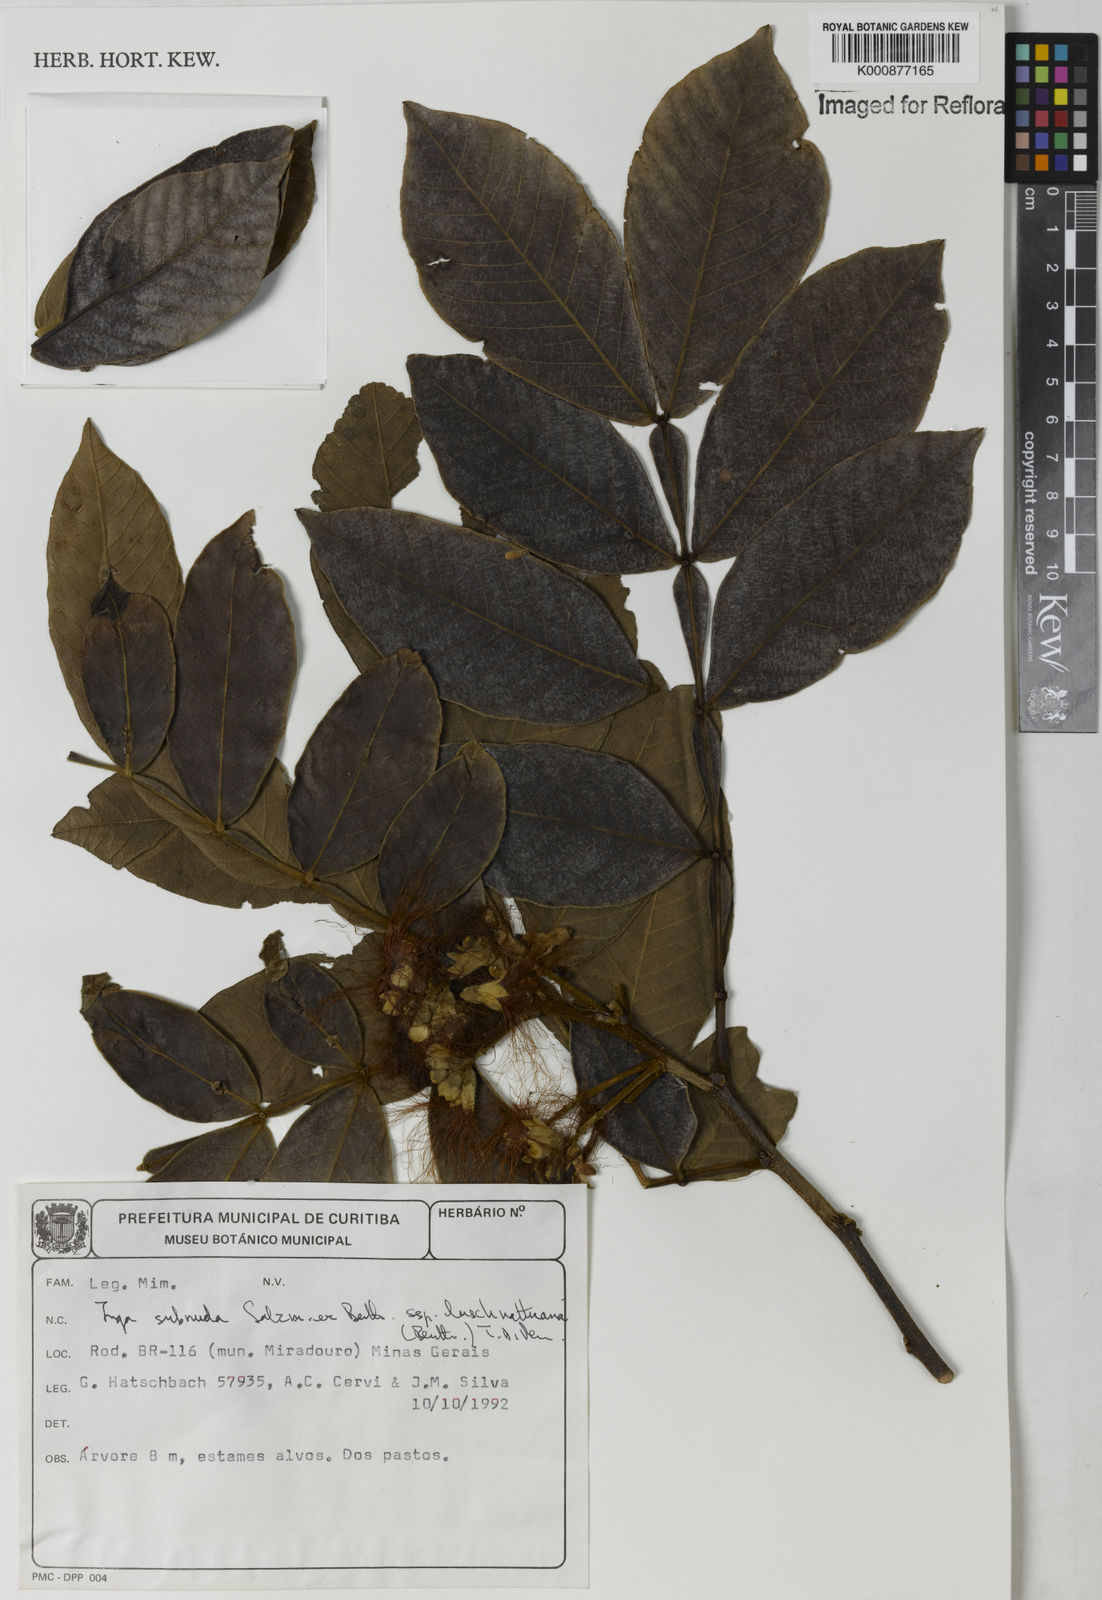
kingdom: Plantae
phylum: Tracheophyta
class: Magnoliopsida
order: Fabales
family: Fabaceae
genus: Inga
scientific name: Inga subnuda
